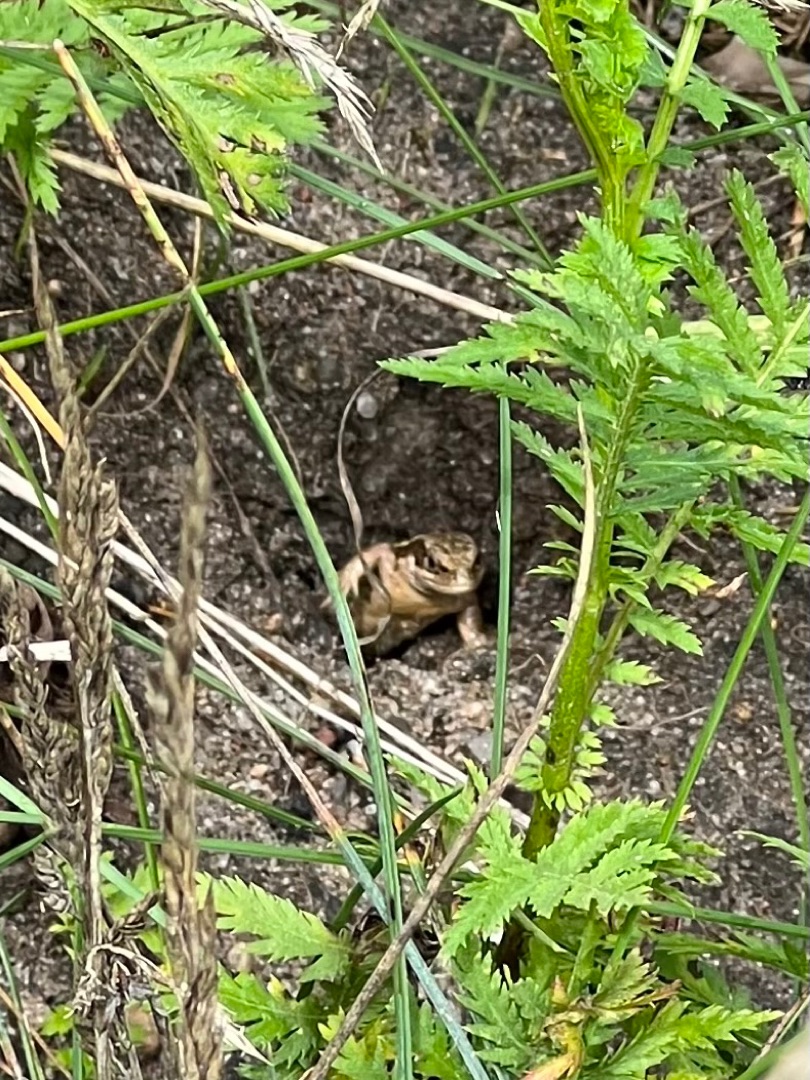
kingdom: Animalia
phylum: Chordata
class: Squamata
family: Lacertidae
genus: Zootoca
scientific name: Zootoca vivipara
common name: Skovfirben
